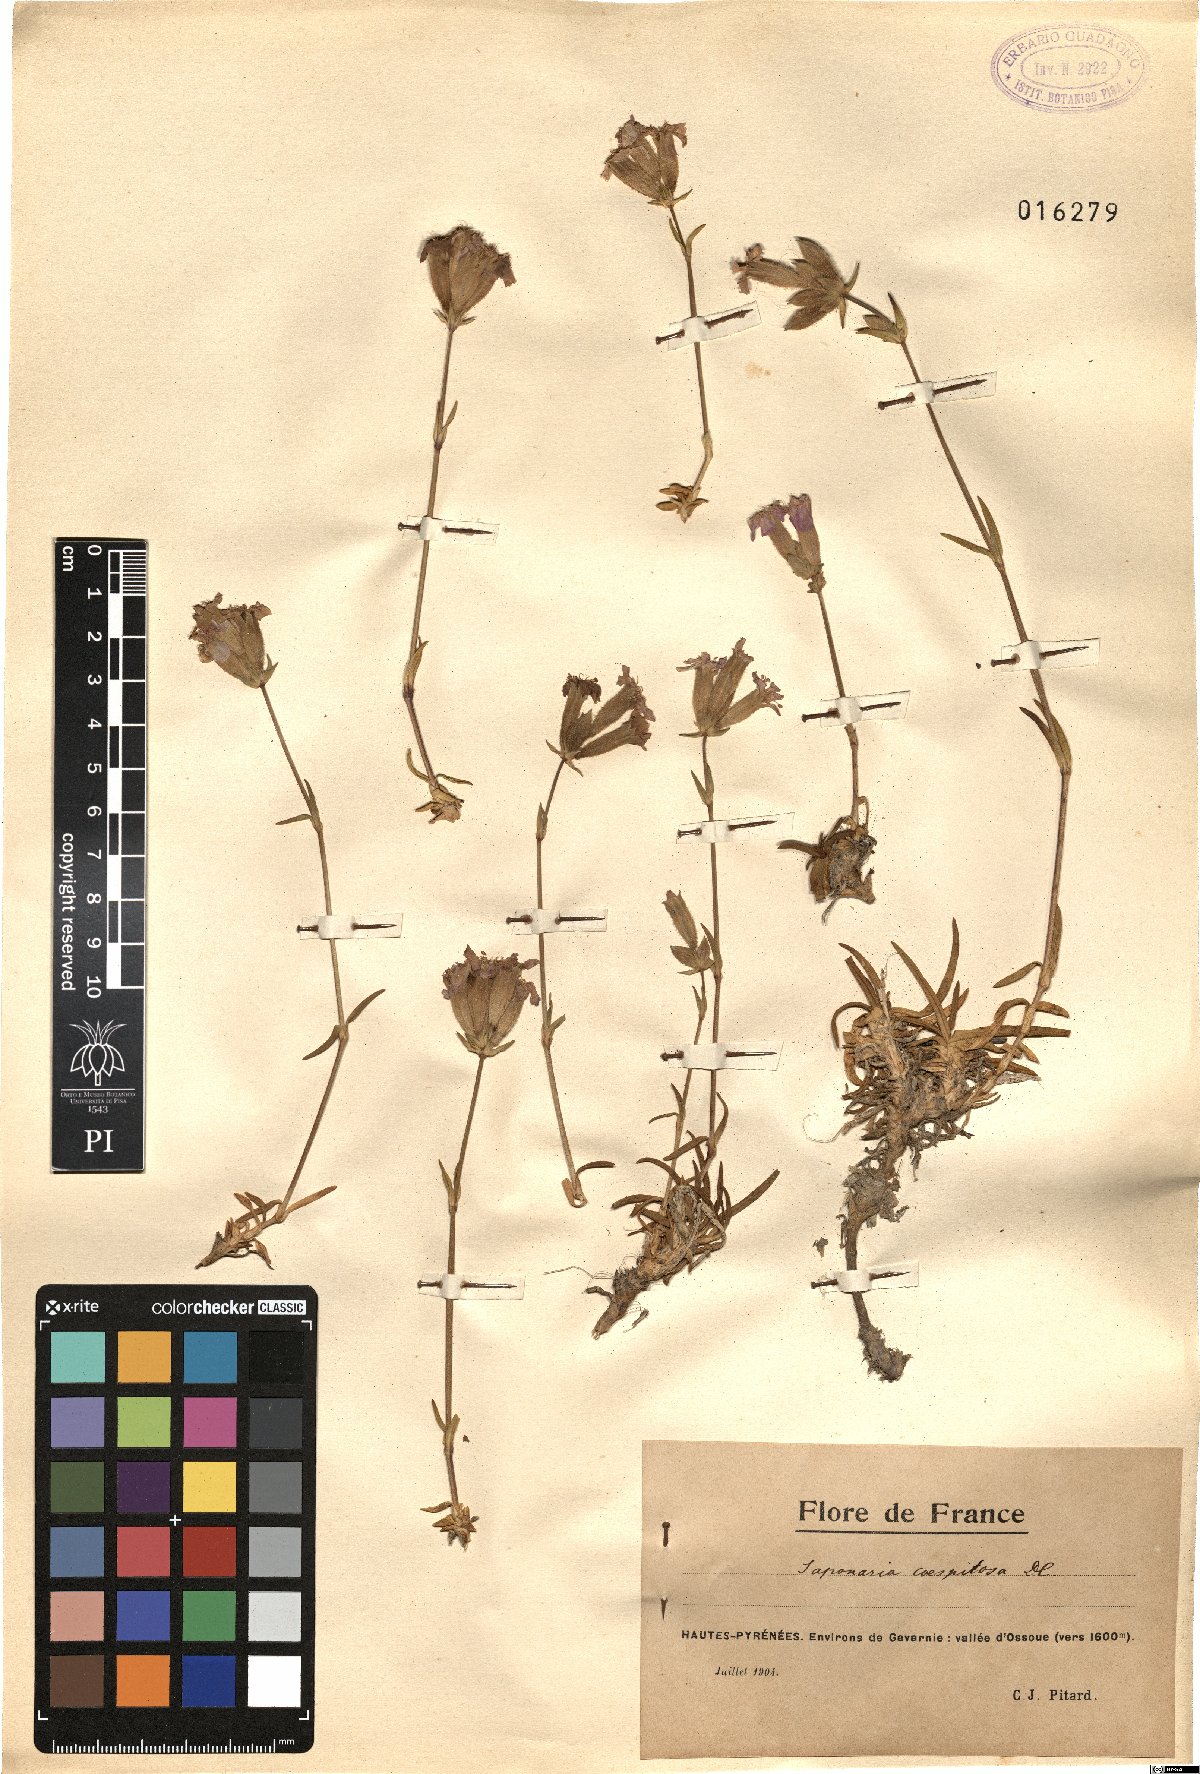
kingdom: Plantae
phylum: Tracheophyta
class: Magnoliopsida
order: Caryophyllales
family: Caryophyllaceae
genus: Saponaria
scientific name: Saponaria caespitosa
